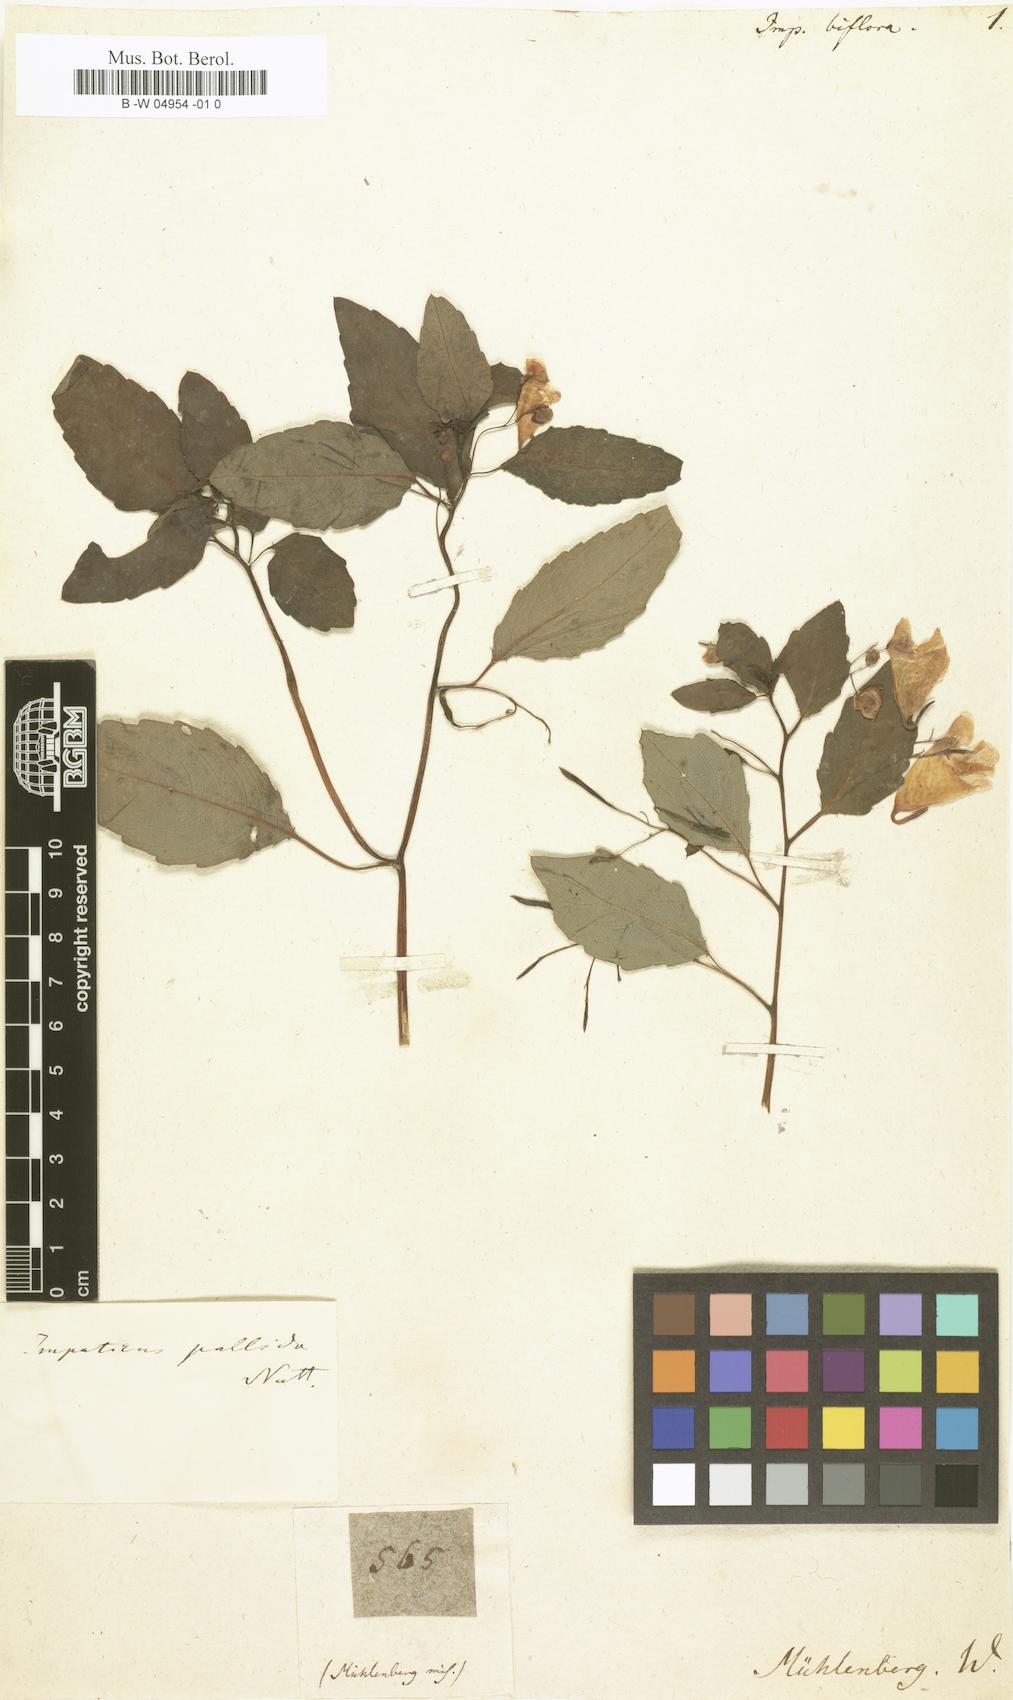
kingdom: Plantae
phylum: Tracheophyta
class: Magnoliopsida
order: Ericales
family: Balsaminaceae
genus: Impatiens
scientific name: Impatiens capensis
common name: Orange balsam
